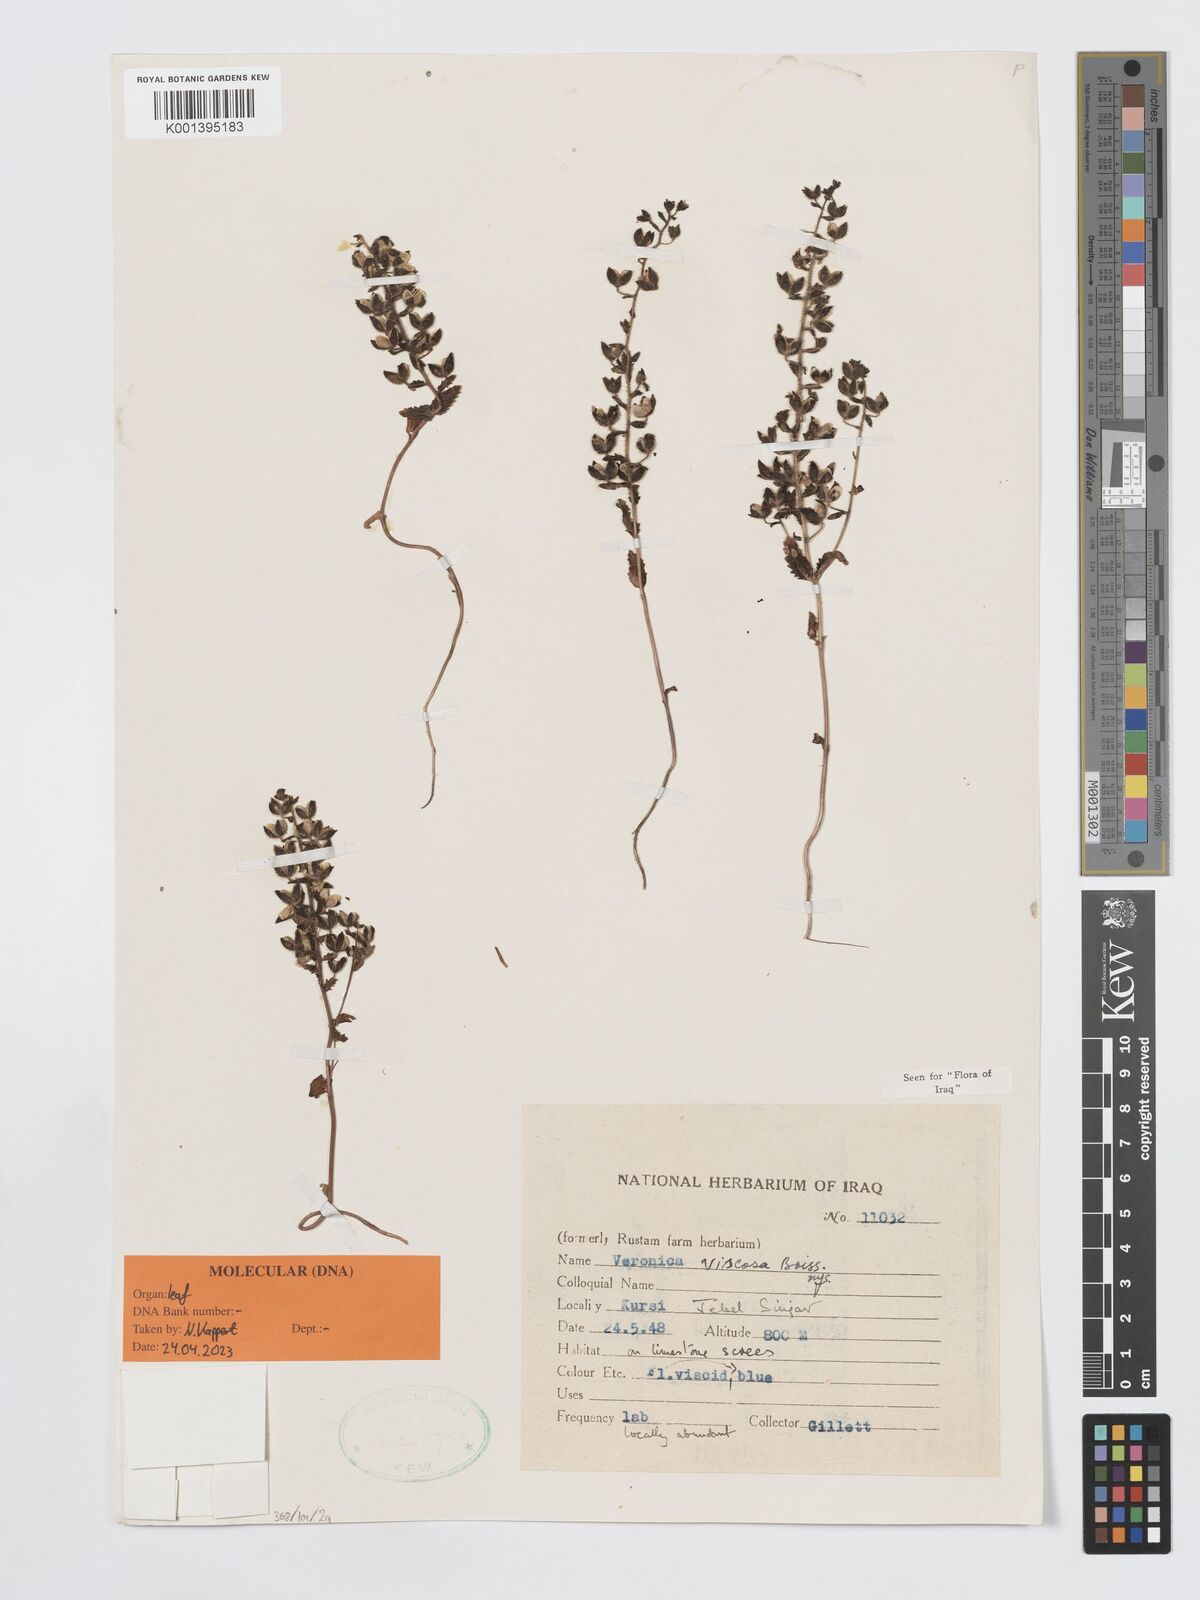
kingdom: Plantae
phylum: Tracheophyta
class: Magnoliopsida
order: Lamiales
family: Plantaginaceae
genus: Veronica
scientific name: Veronica viscosa
